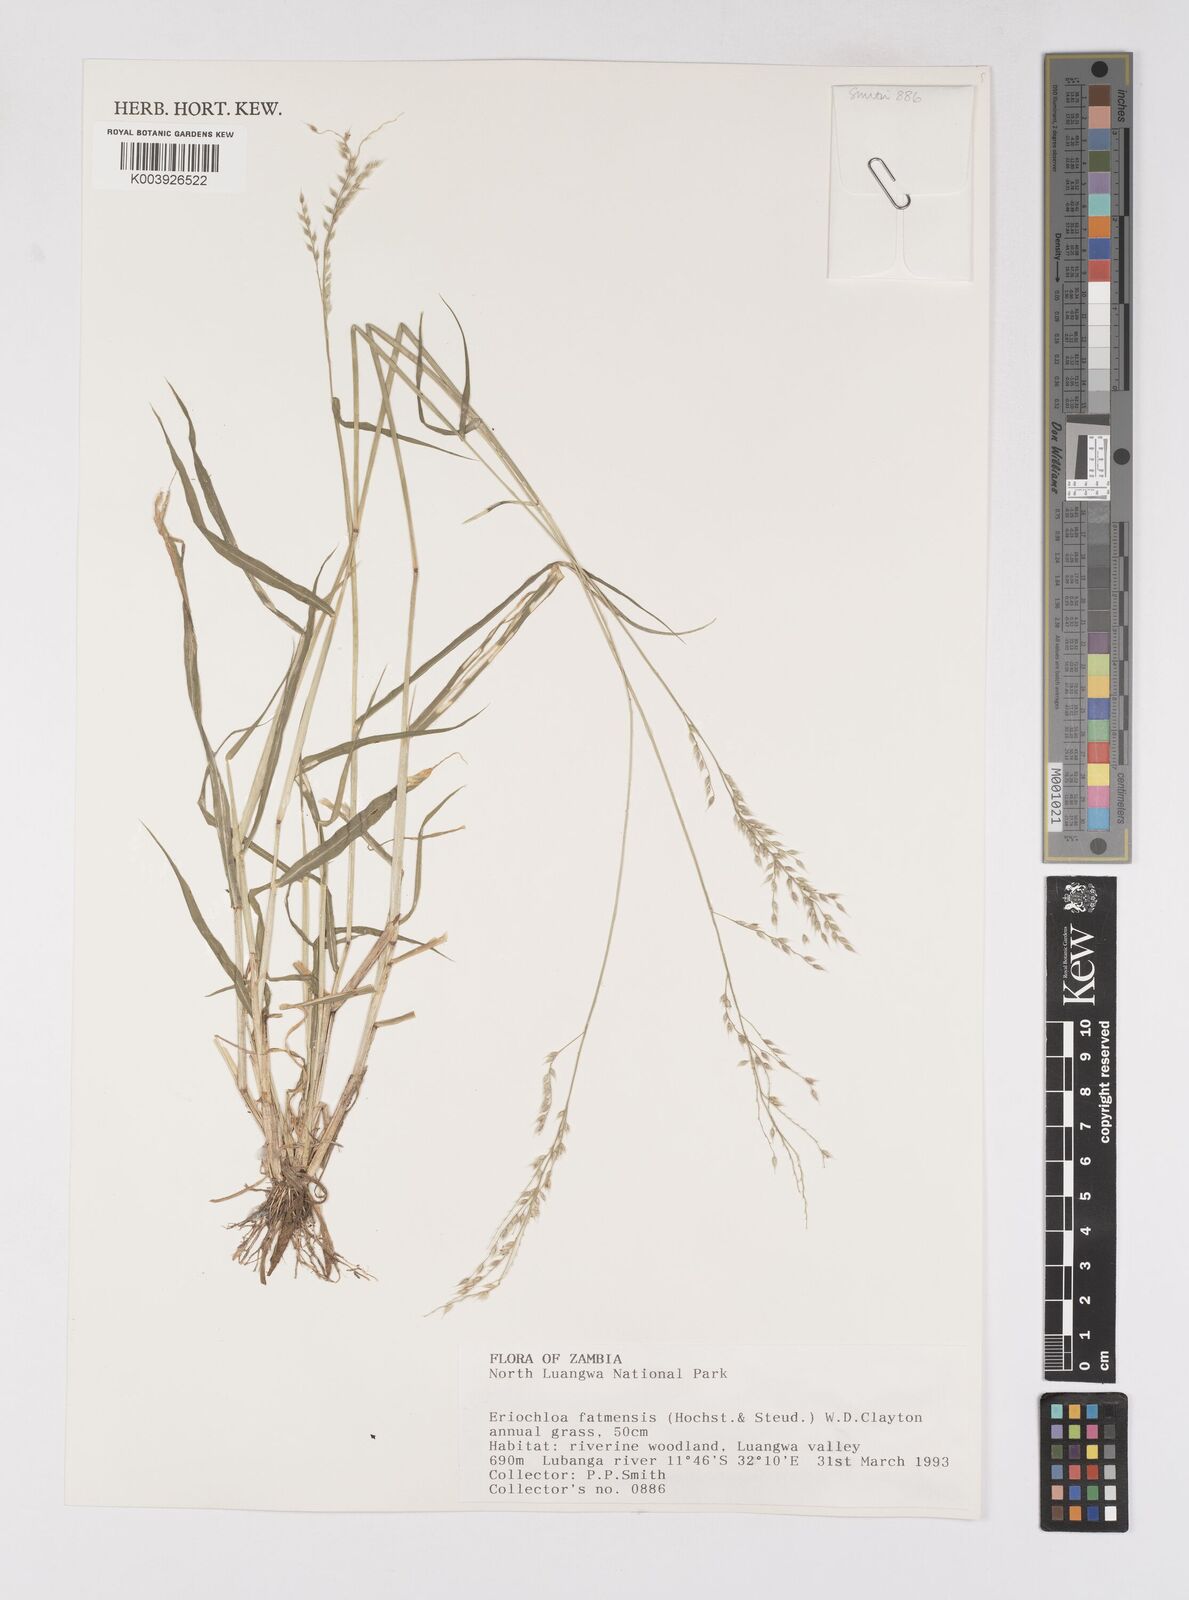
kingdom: Plantae
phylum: Tracheophyta
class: Liliopsida
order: Poales
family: Poaceae
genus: Eriochloa
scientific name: Eriochloa barbatus
